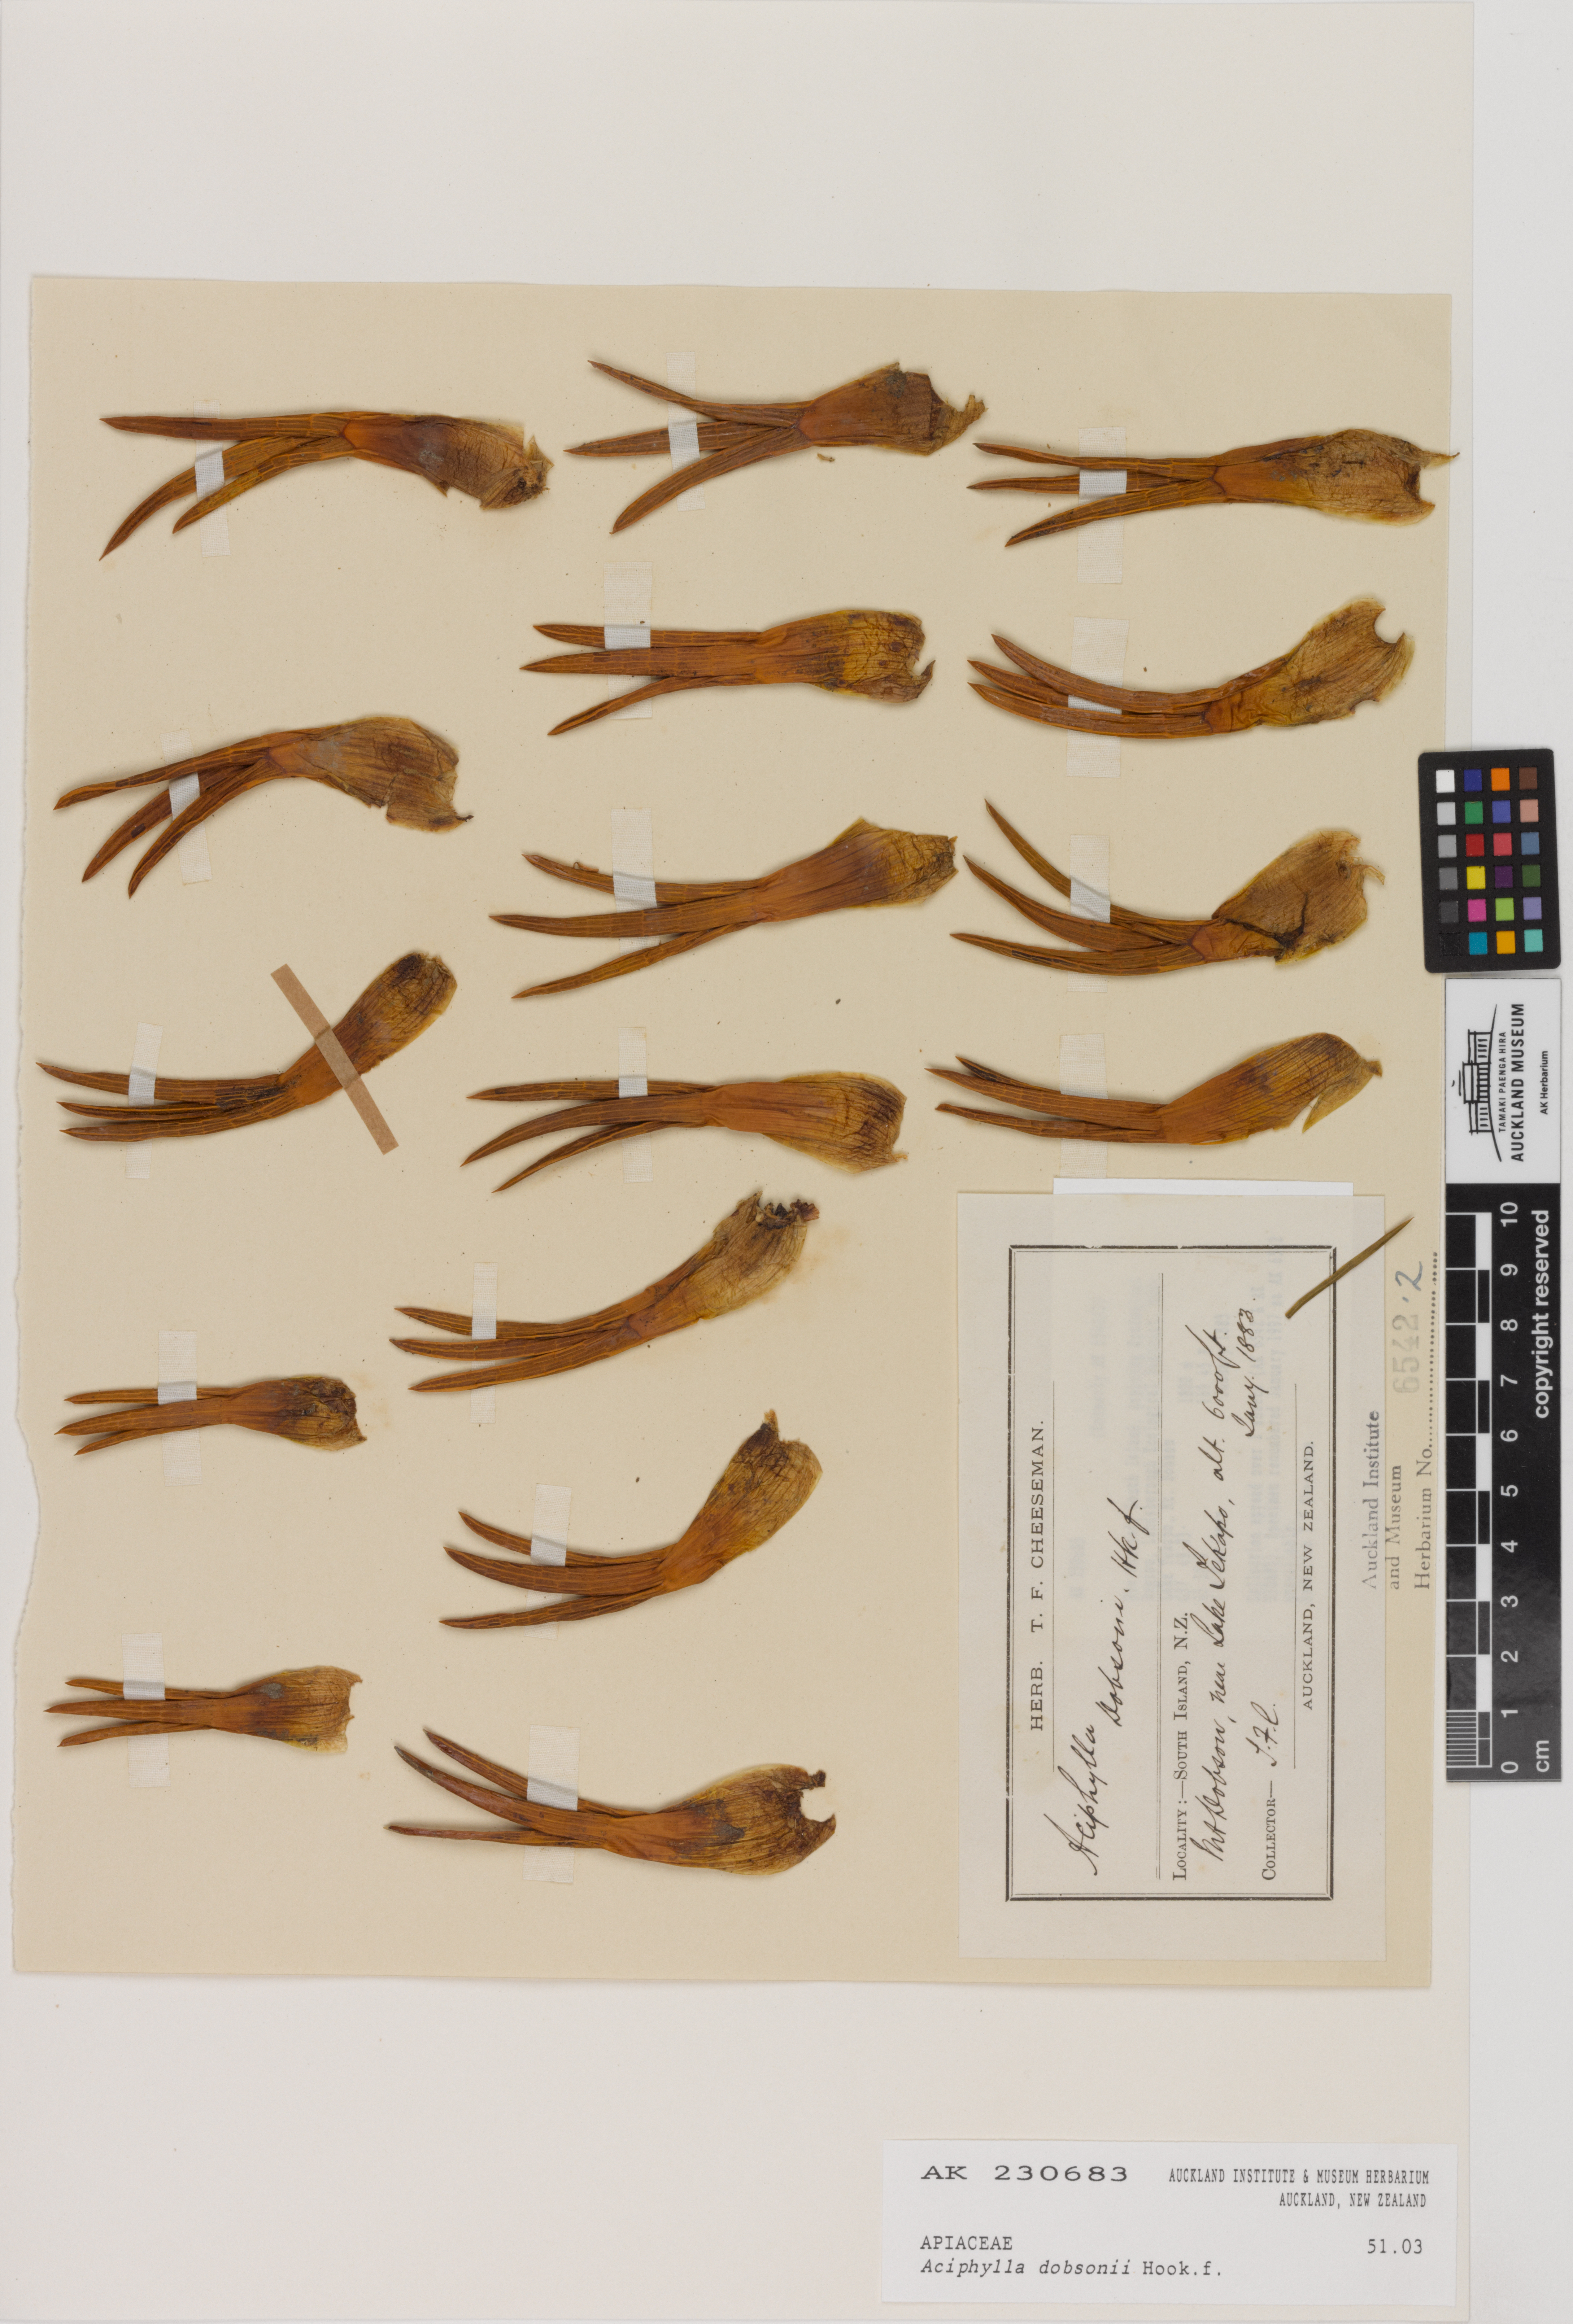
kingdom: Plantae
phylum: Tracheophyta
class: Magnoliopsida
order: Apiales
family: Apiaceae
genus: Aciphylla
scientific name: Aciphylla dobsonii
